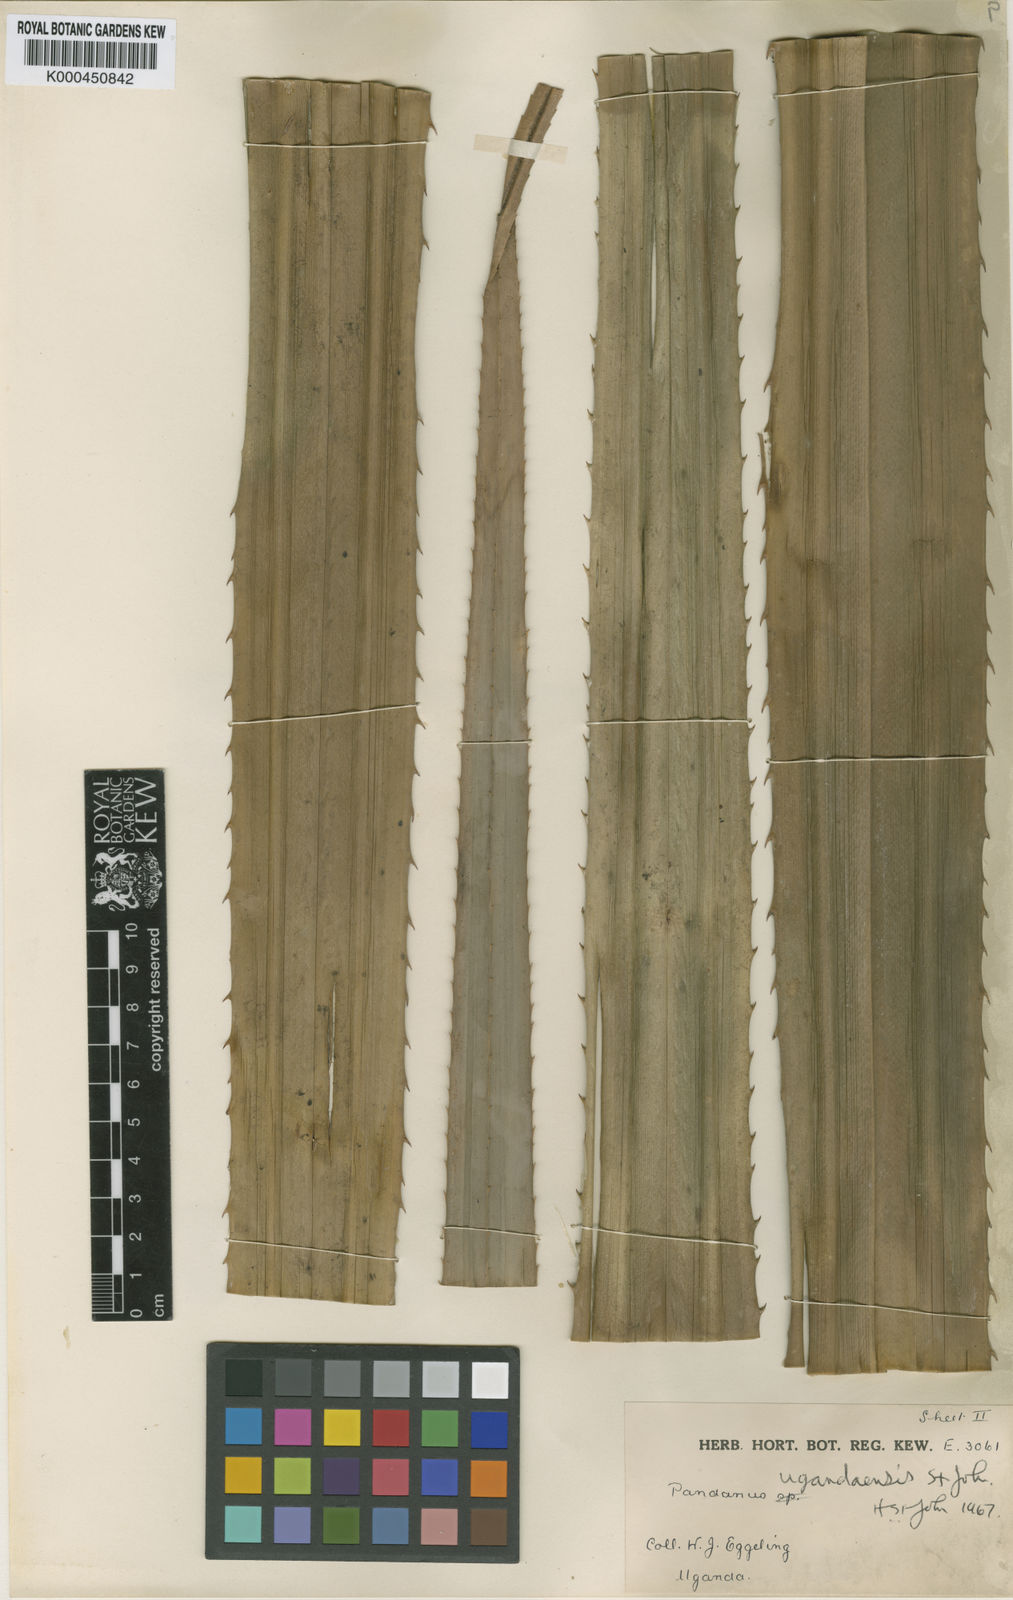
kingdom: Plantae
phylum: Tracheophyta
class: Liliopsida
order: Pandanales
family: Pandanaceae
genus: Pandanus
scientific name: Pandanus chiliocarpus
